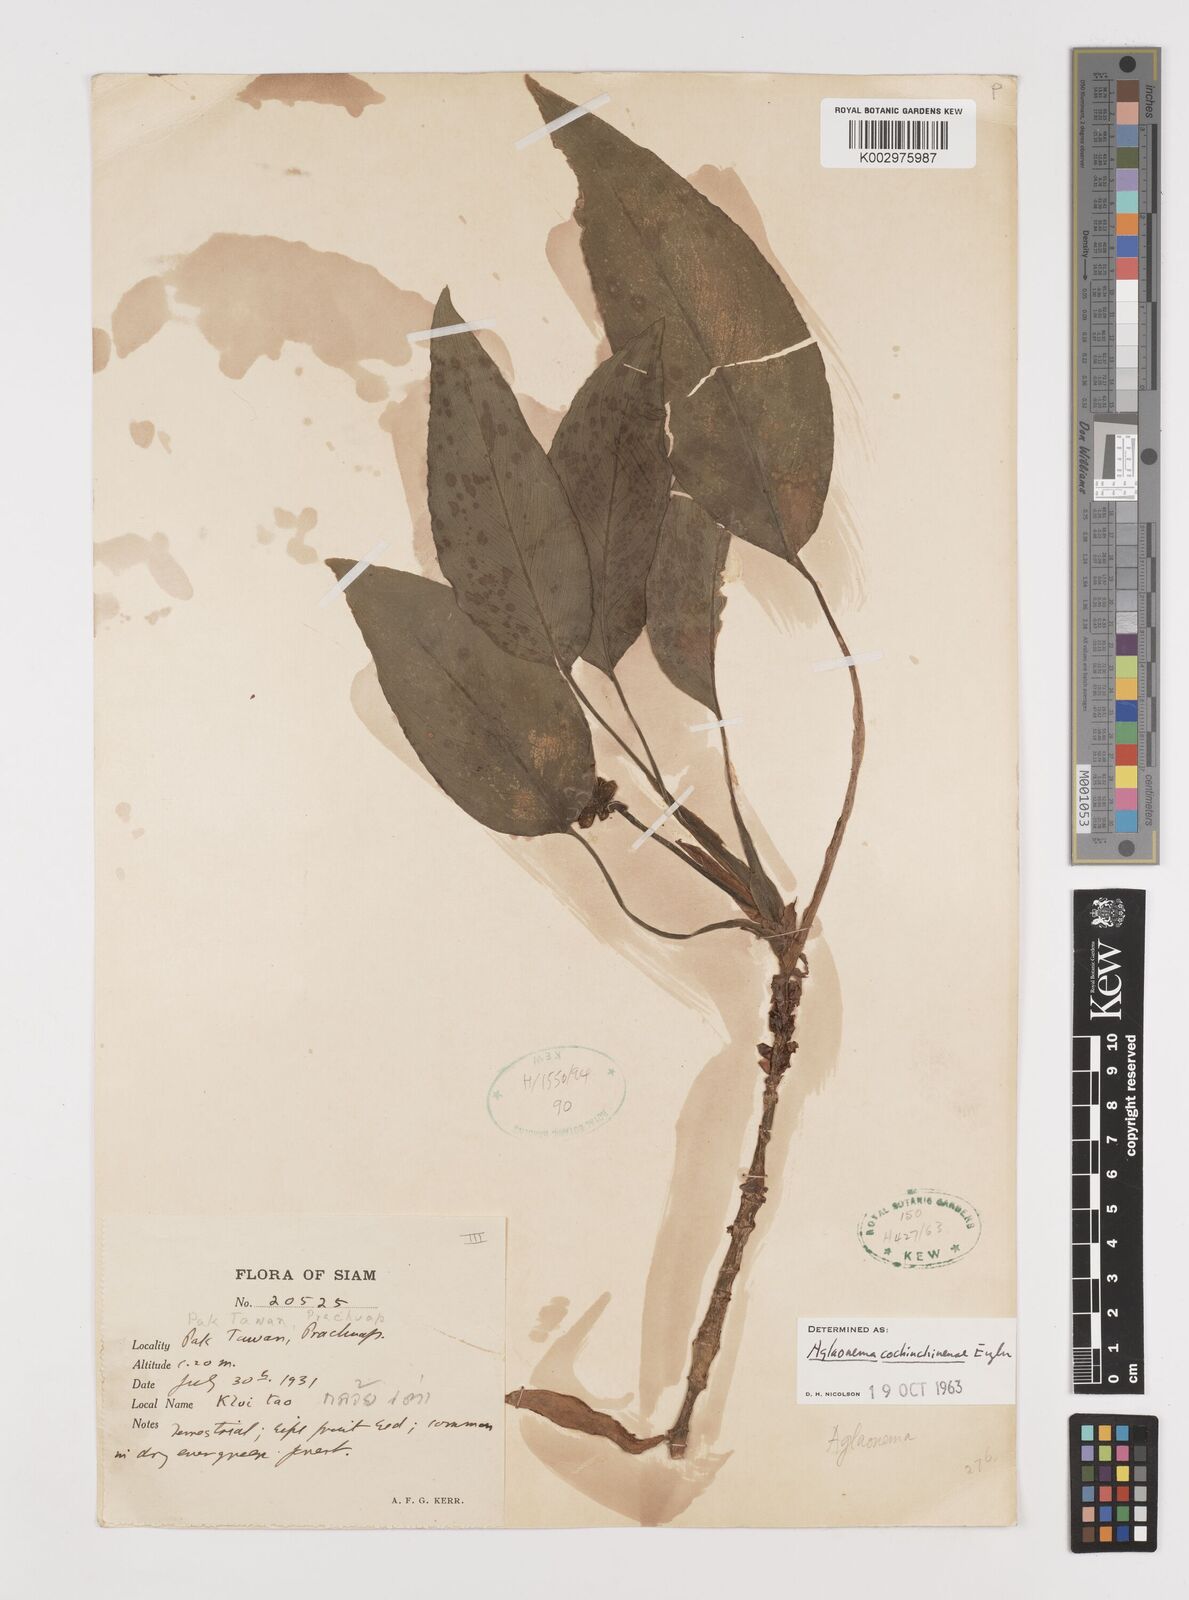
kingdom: Plantae
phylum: Tracheophyta
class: Liliopsida
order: Alismatales
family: Araceae
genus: Aglaonema
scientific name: Aglaonema cochinchinense
